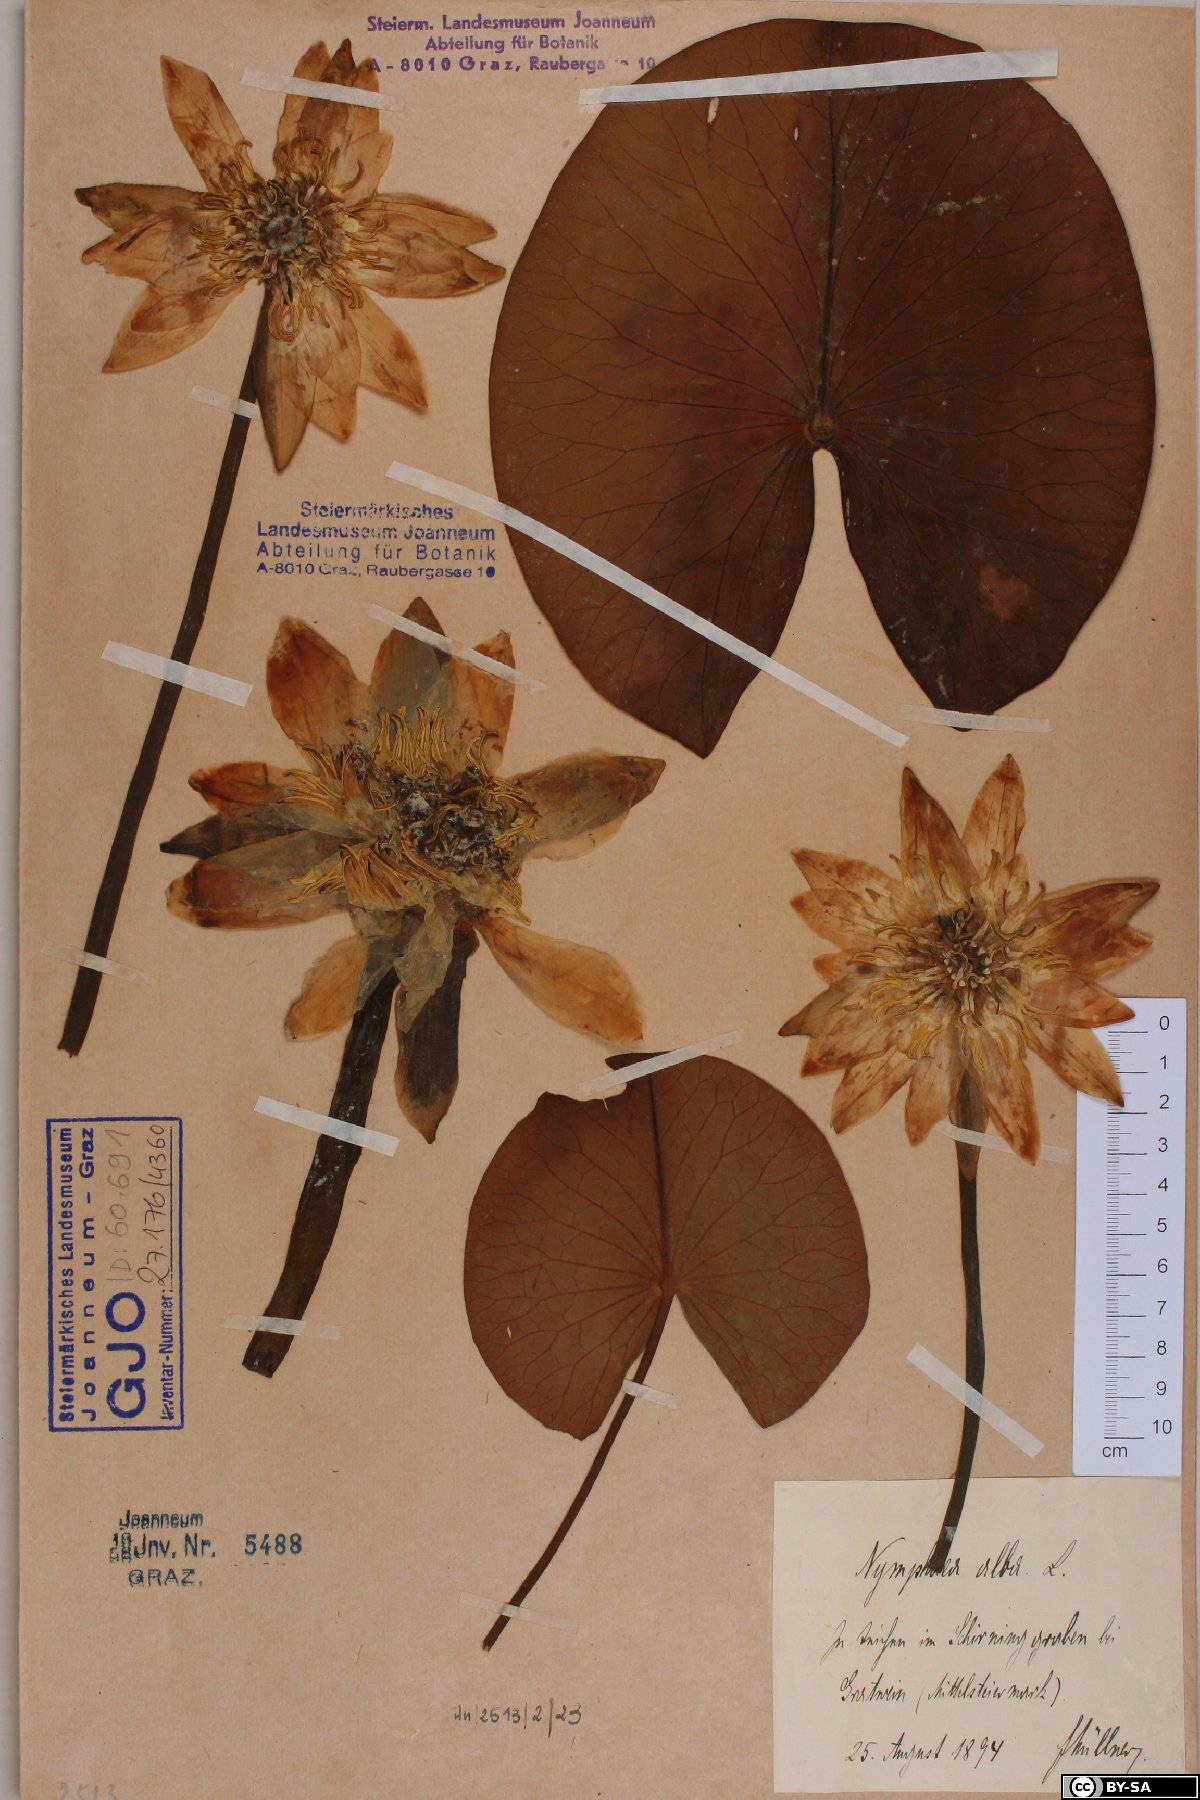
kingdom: Plantae
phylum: Tracheophyta
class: Magnoliopsida
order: Nymphaeales
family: Nymphaeaceae
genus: Nymphaea
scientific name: Nymphaea alba
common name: White water-lily
